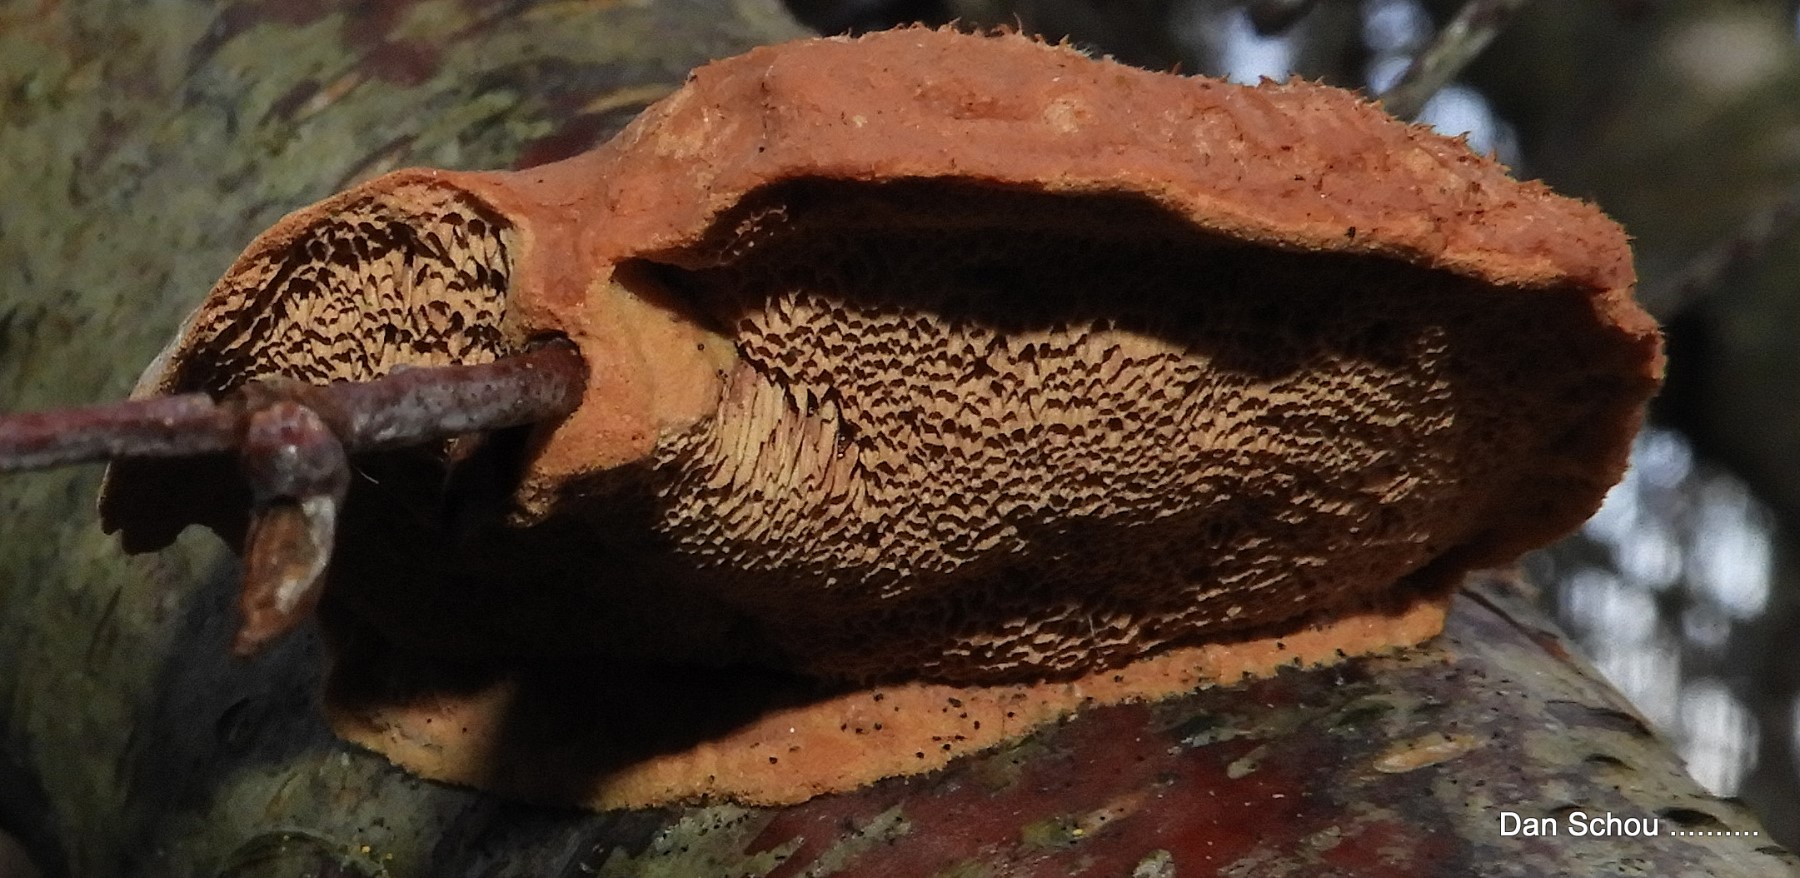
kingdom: Fungi
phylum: Basidiomycota
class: Agaricomycetes
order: Polyporales
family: Phanerochaetaceae
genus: Hapalopilus
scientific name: Hapalopilus rutilans
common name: rødlig okkerporesvamp
